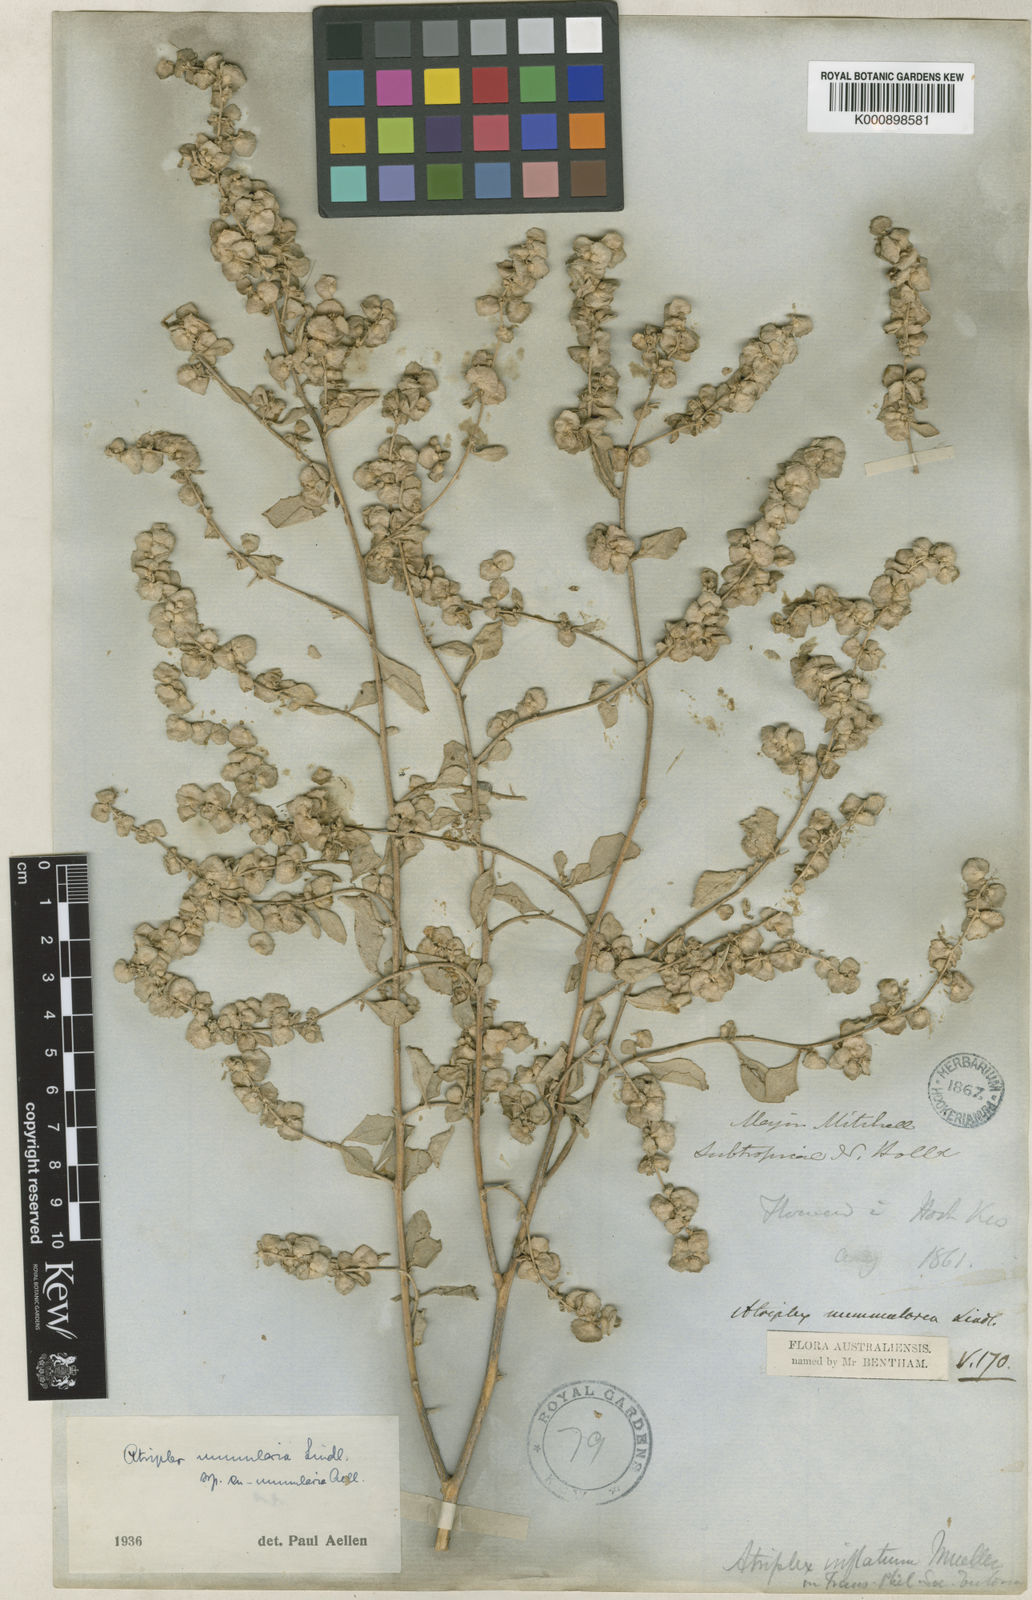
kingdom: Plantae
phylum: Tracheophyta
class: Magnoliopsida
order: Caryophyllales
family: Amaranthaceae
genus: Atriplex
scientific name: Atriplex nummularia
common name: Bluegreen saltbush
